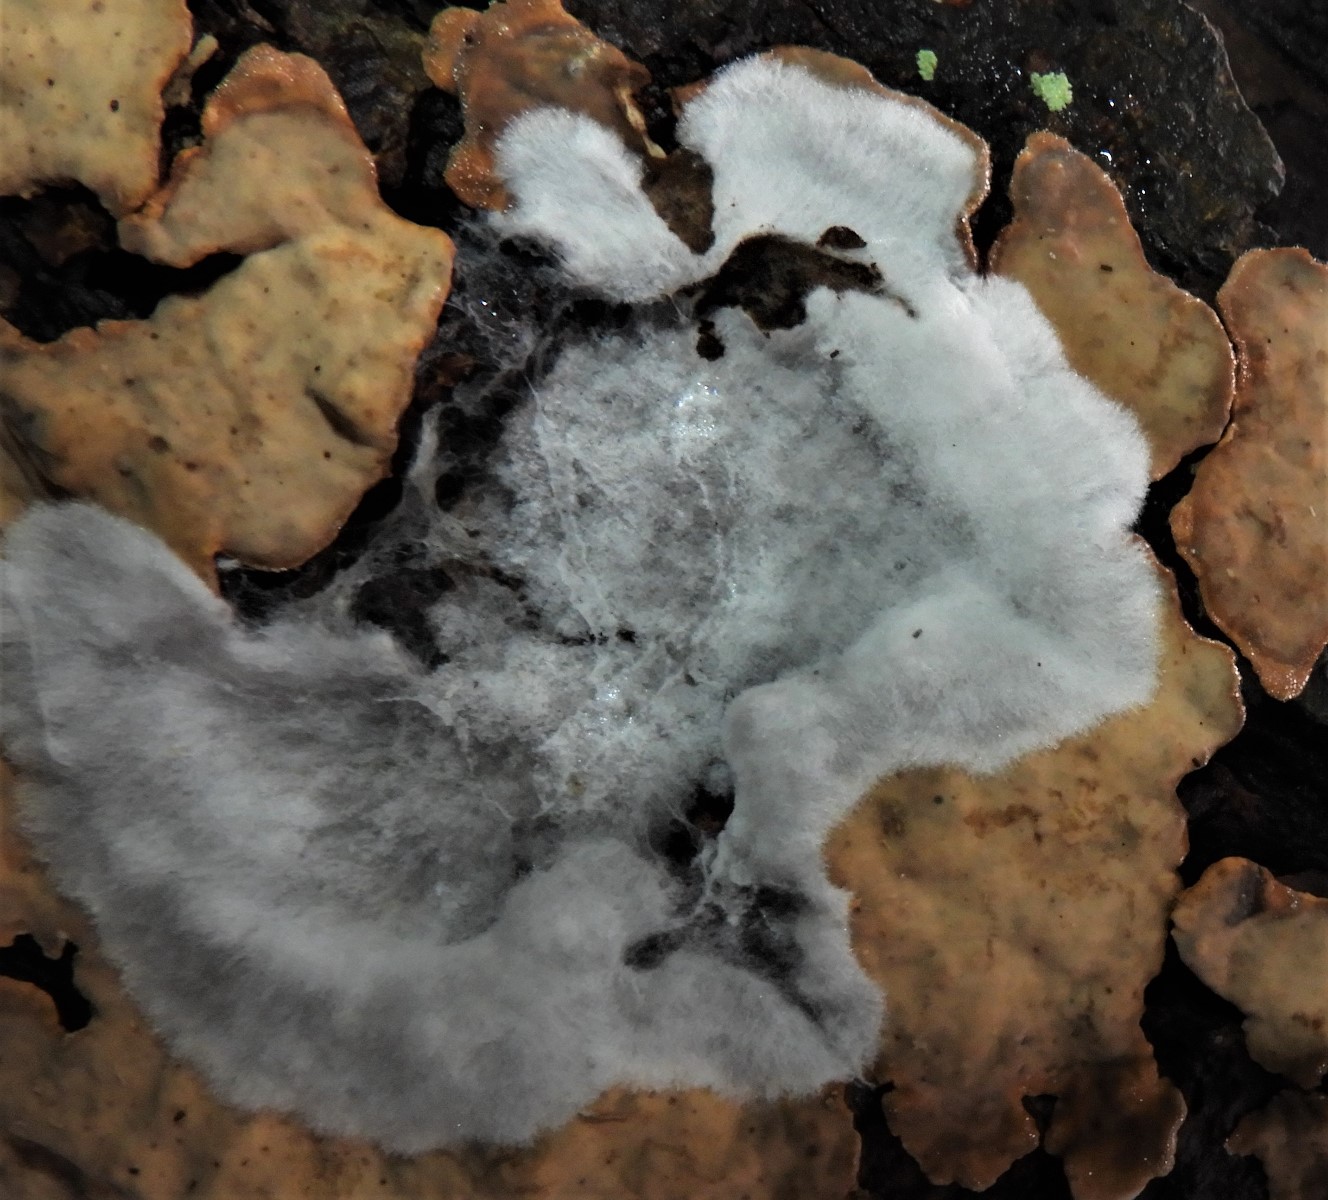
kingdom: Fungi
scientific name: Fungi
